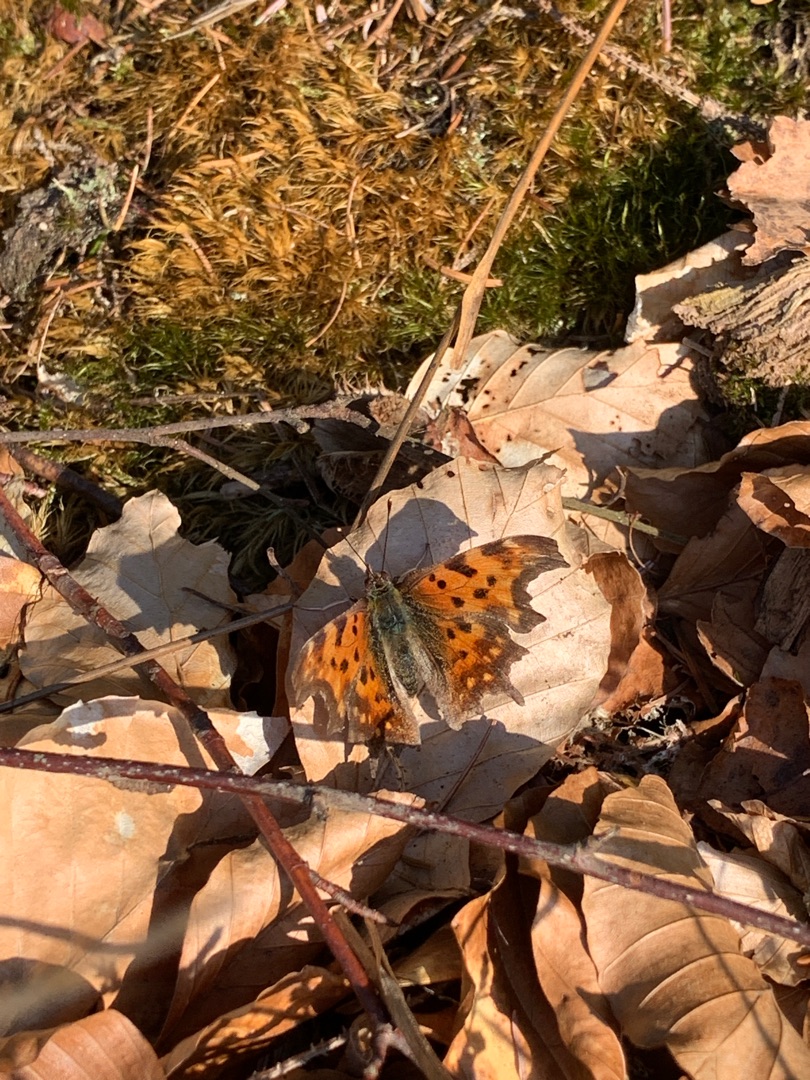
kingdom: Animalia
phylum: Arthropoda
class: Insecta
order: Lepidoptera
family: Nymphalidae
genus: Polygonia
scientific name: Polygonia c-album
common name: Det hvide C
